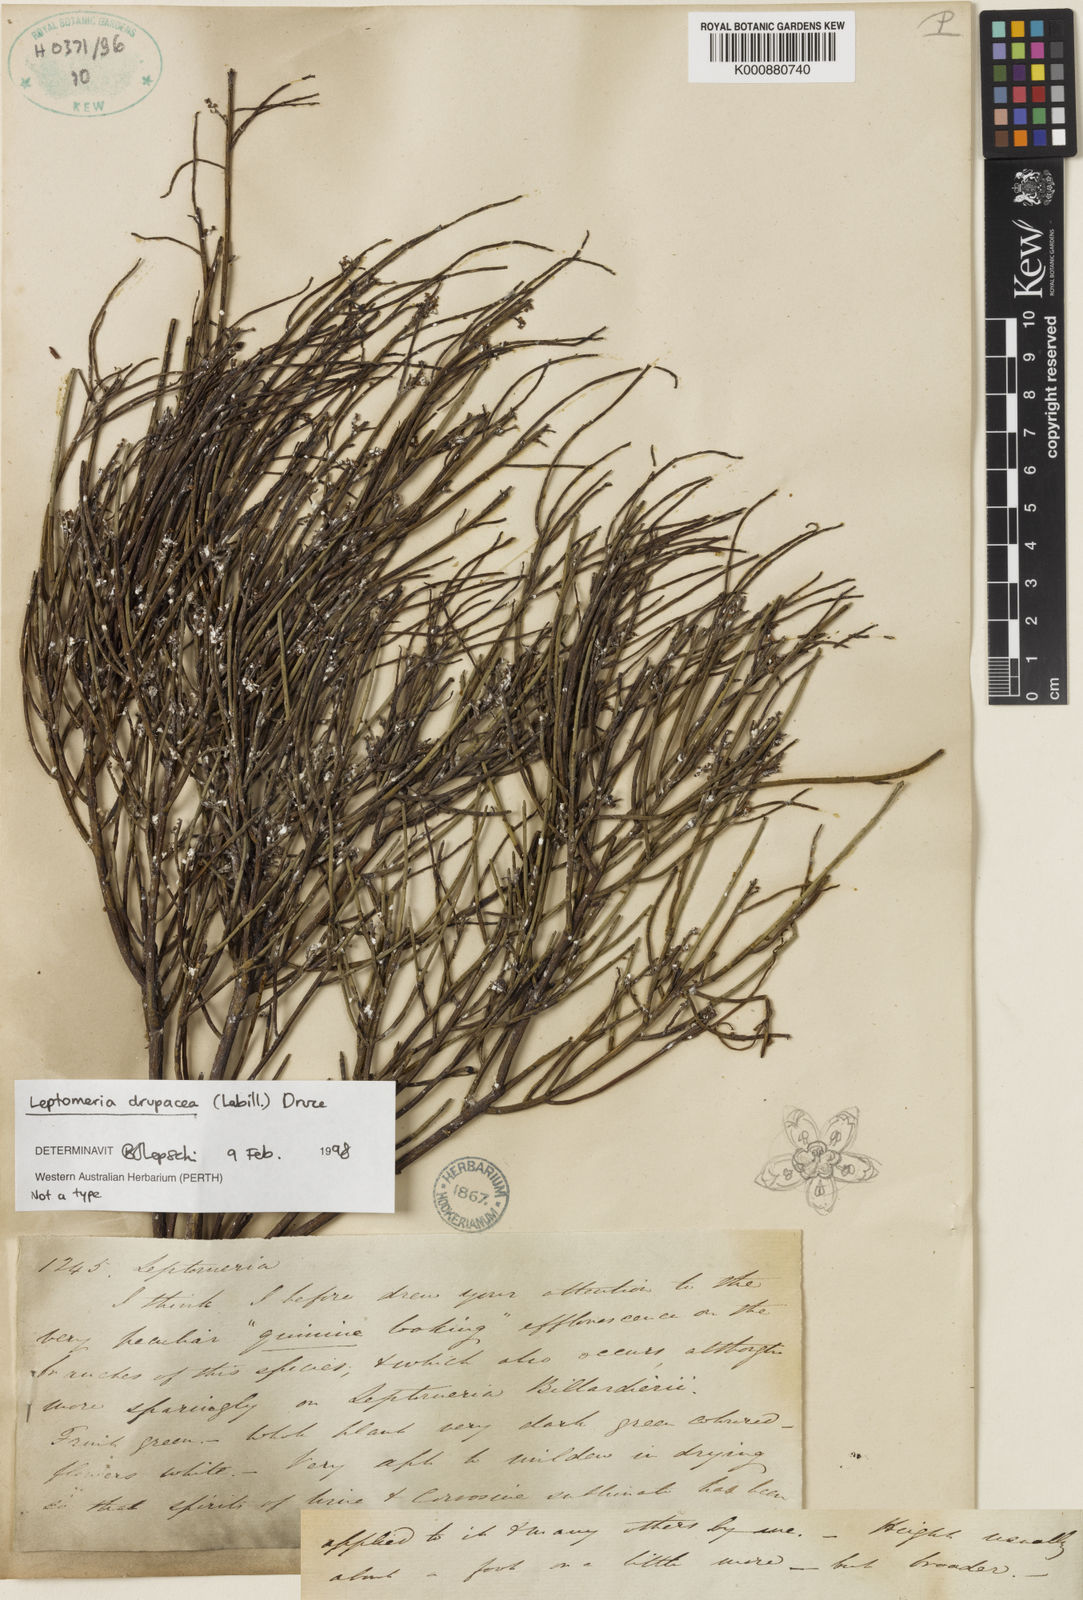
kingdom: Plantae
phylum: Tracheophyta
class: Magnoliopsida
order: Santalales
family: Amphorogynaceae
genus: Leptomeria
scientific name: Leptomeria drupacea
